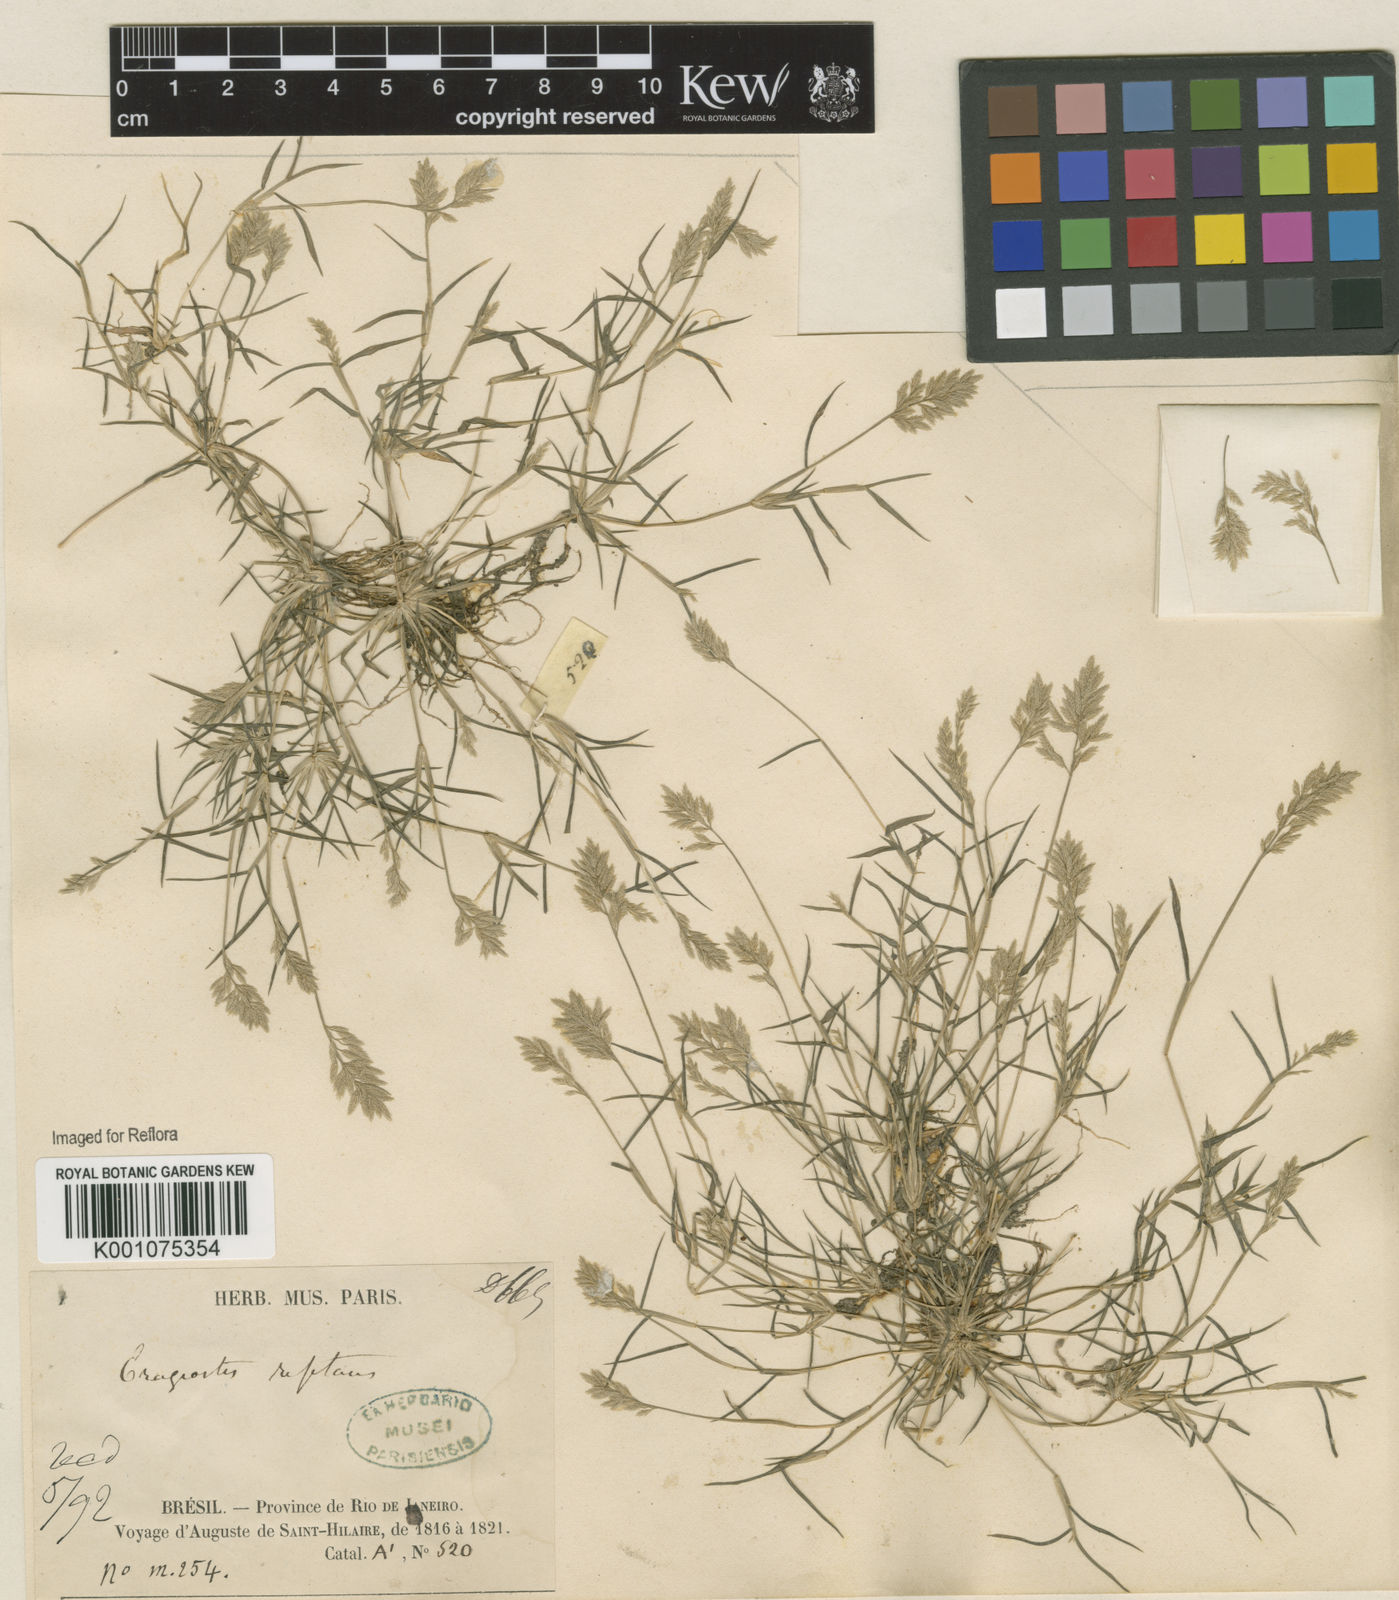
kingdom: Plantae
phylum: Tracheophyta
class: Liliopsida
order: Poales
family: Poaceae
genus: Eragrostis
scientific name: Eragrostis
